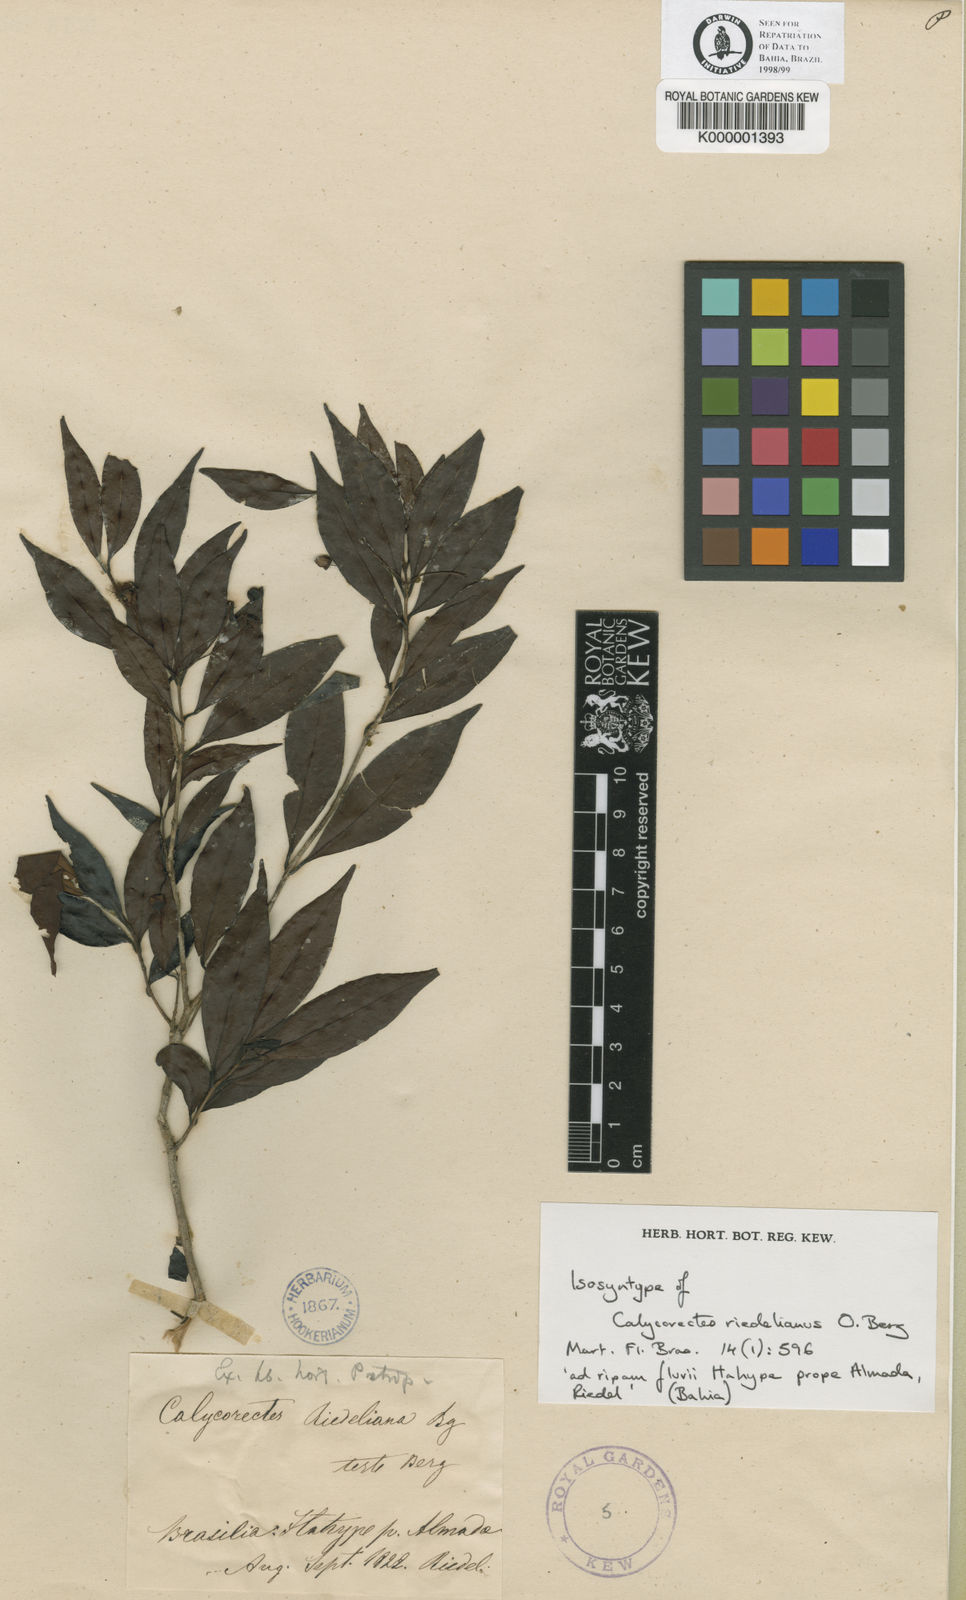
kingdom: Plantae
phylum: Tracheophyta
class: Magnoliopsida
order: Myrtales
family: Myrtaceae
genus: Eugenia
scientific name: Eugenia subterminalis
